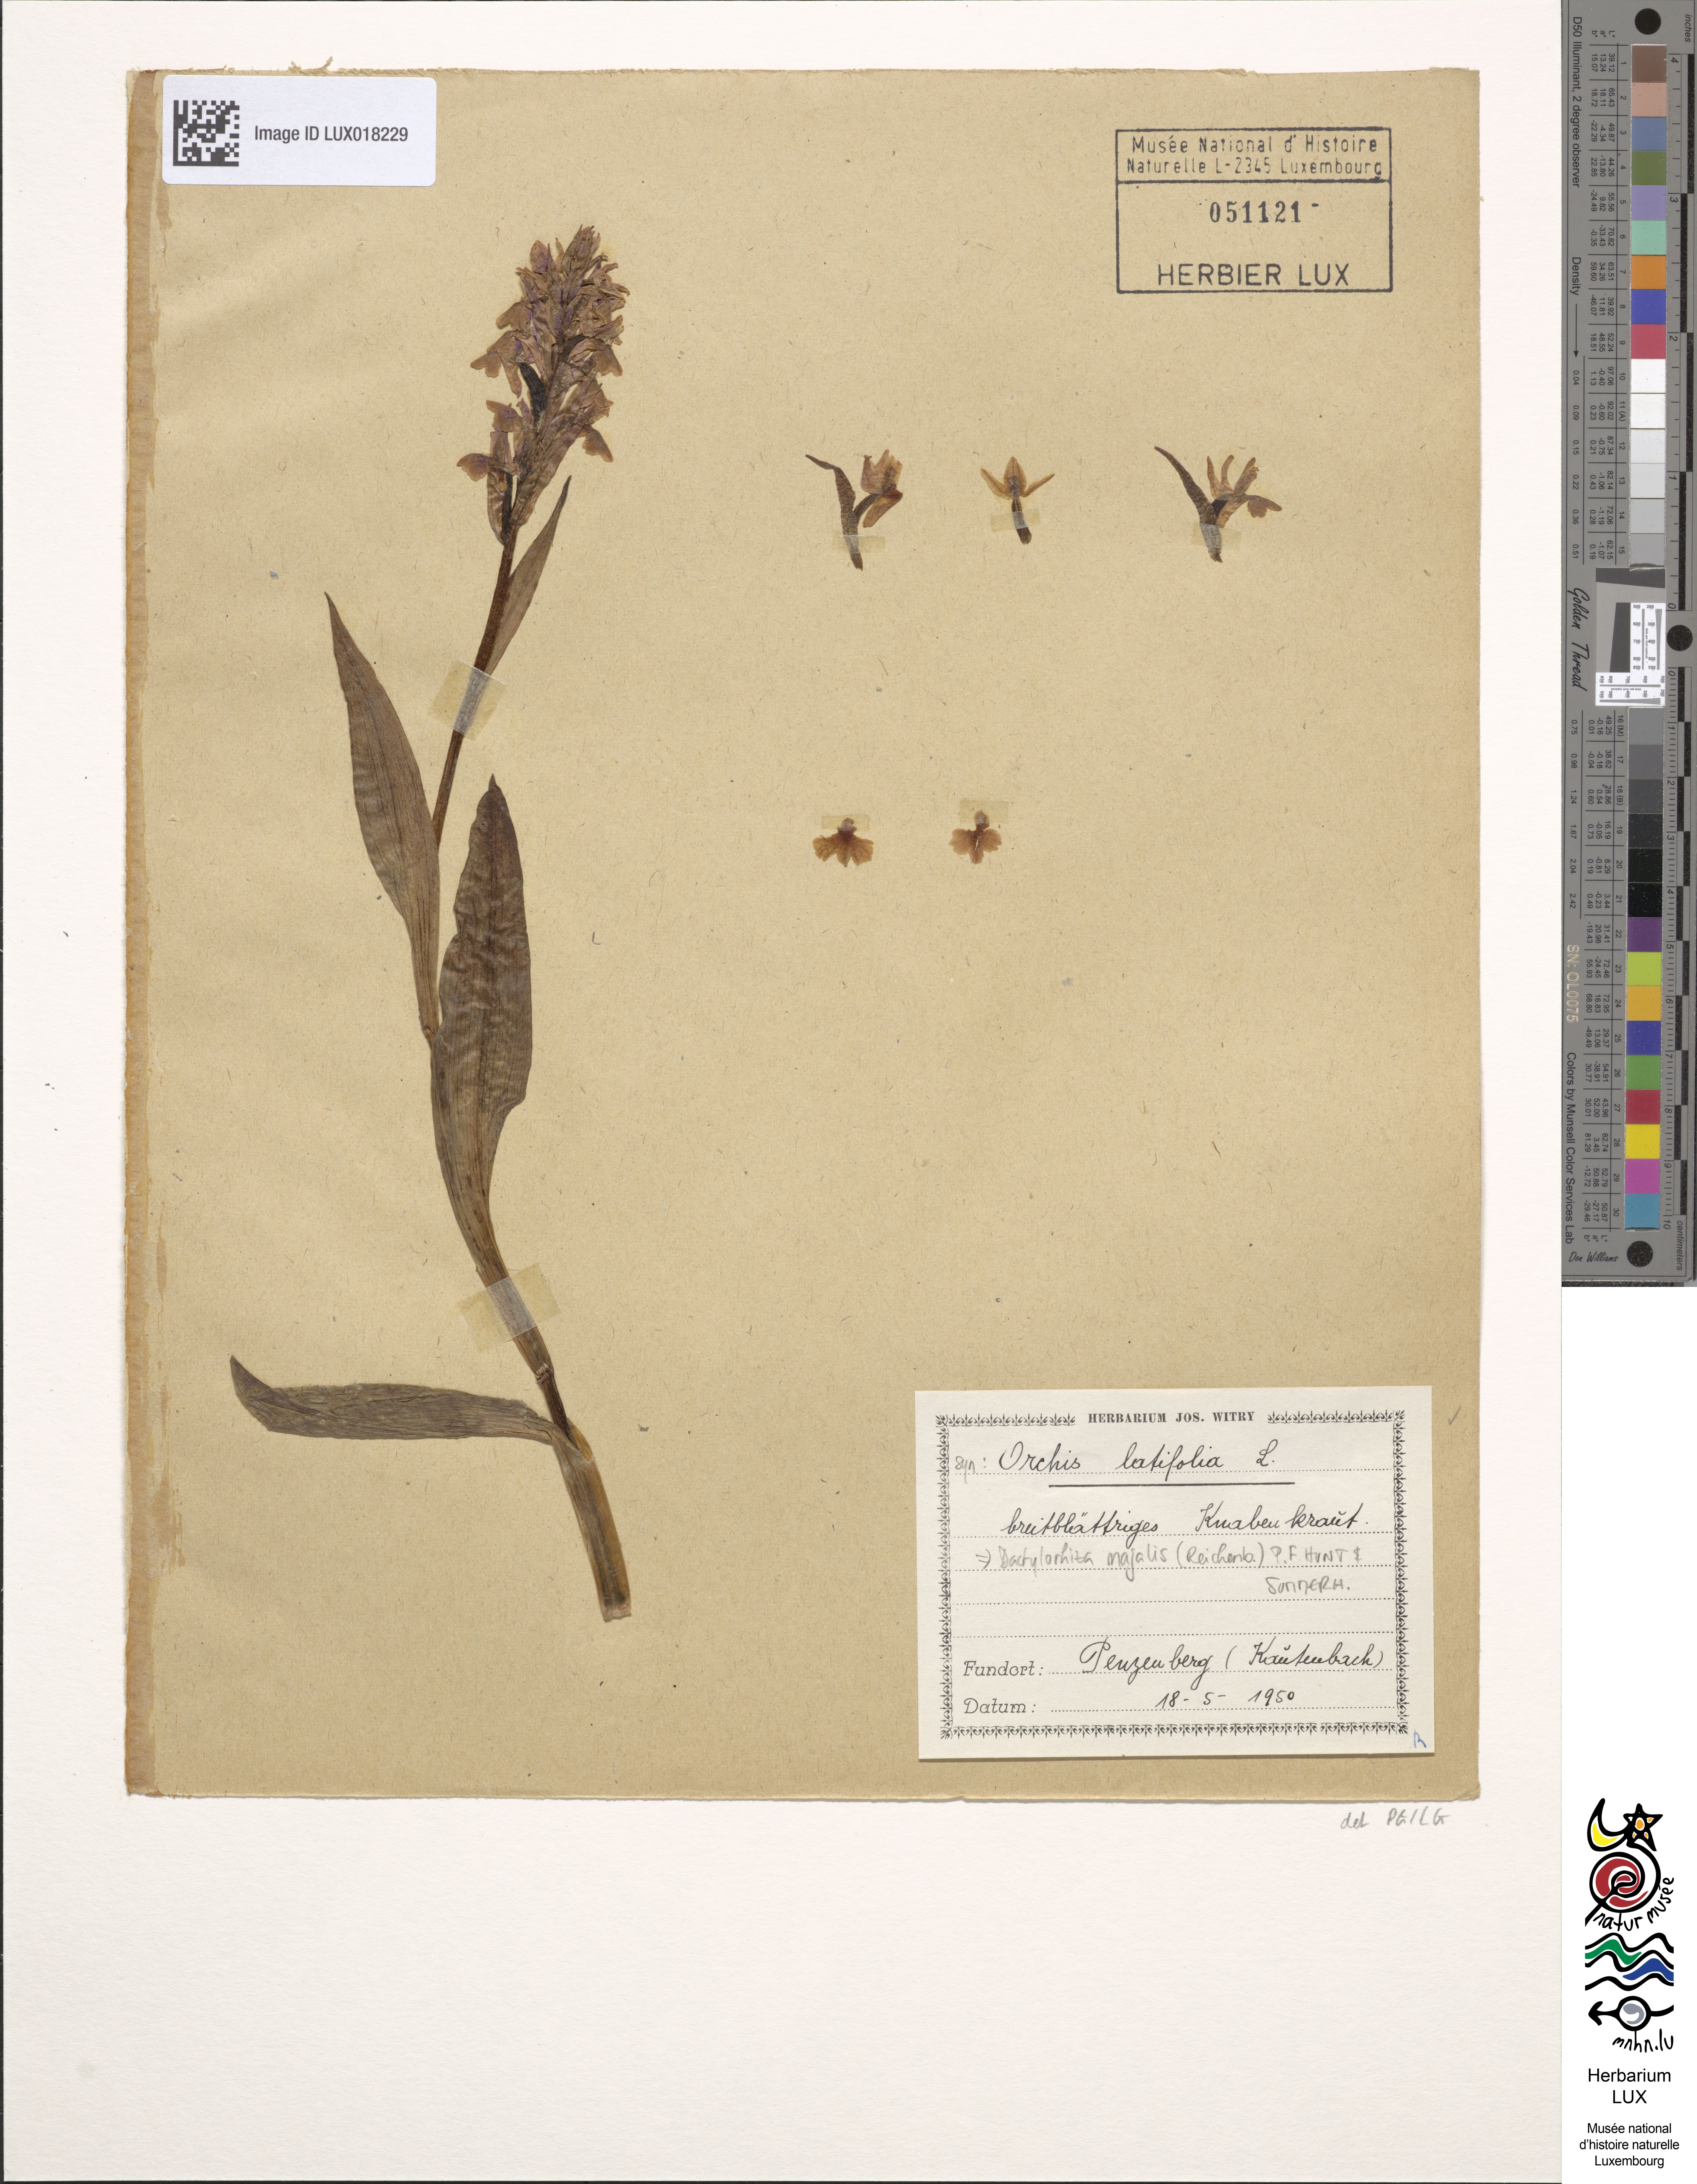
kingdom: Plantae
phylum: Tracheophyta
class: Liliopsida
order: Asparagales
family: Orchidaceae
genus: Dactylorhiza
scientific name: Dactylorhiza majalis
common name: Marsh orchid
